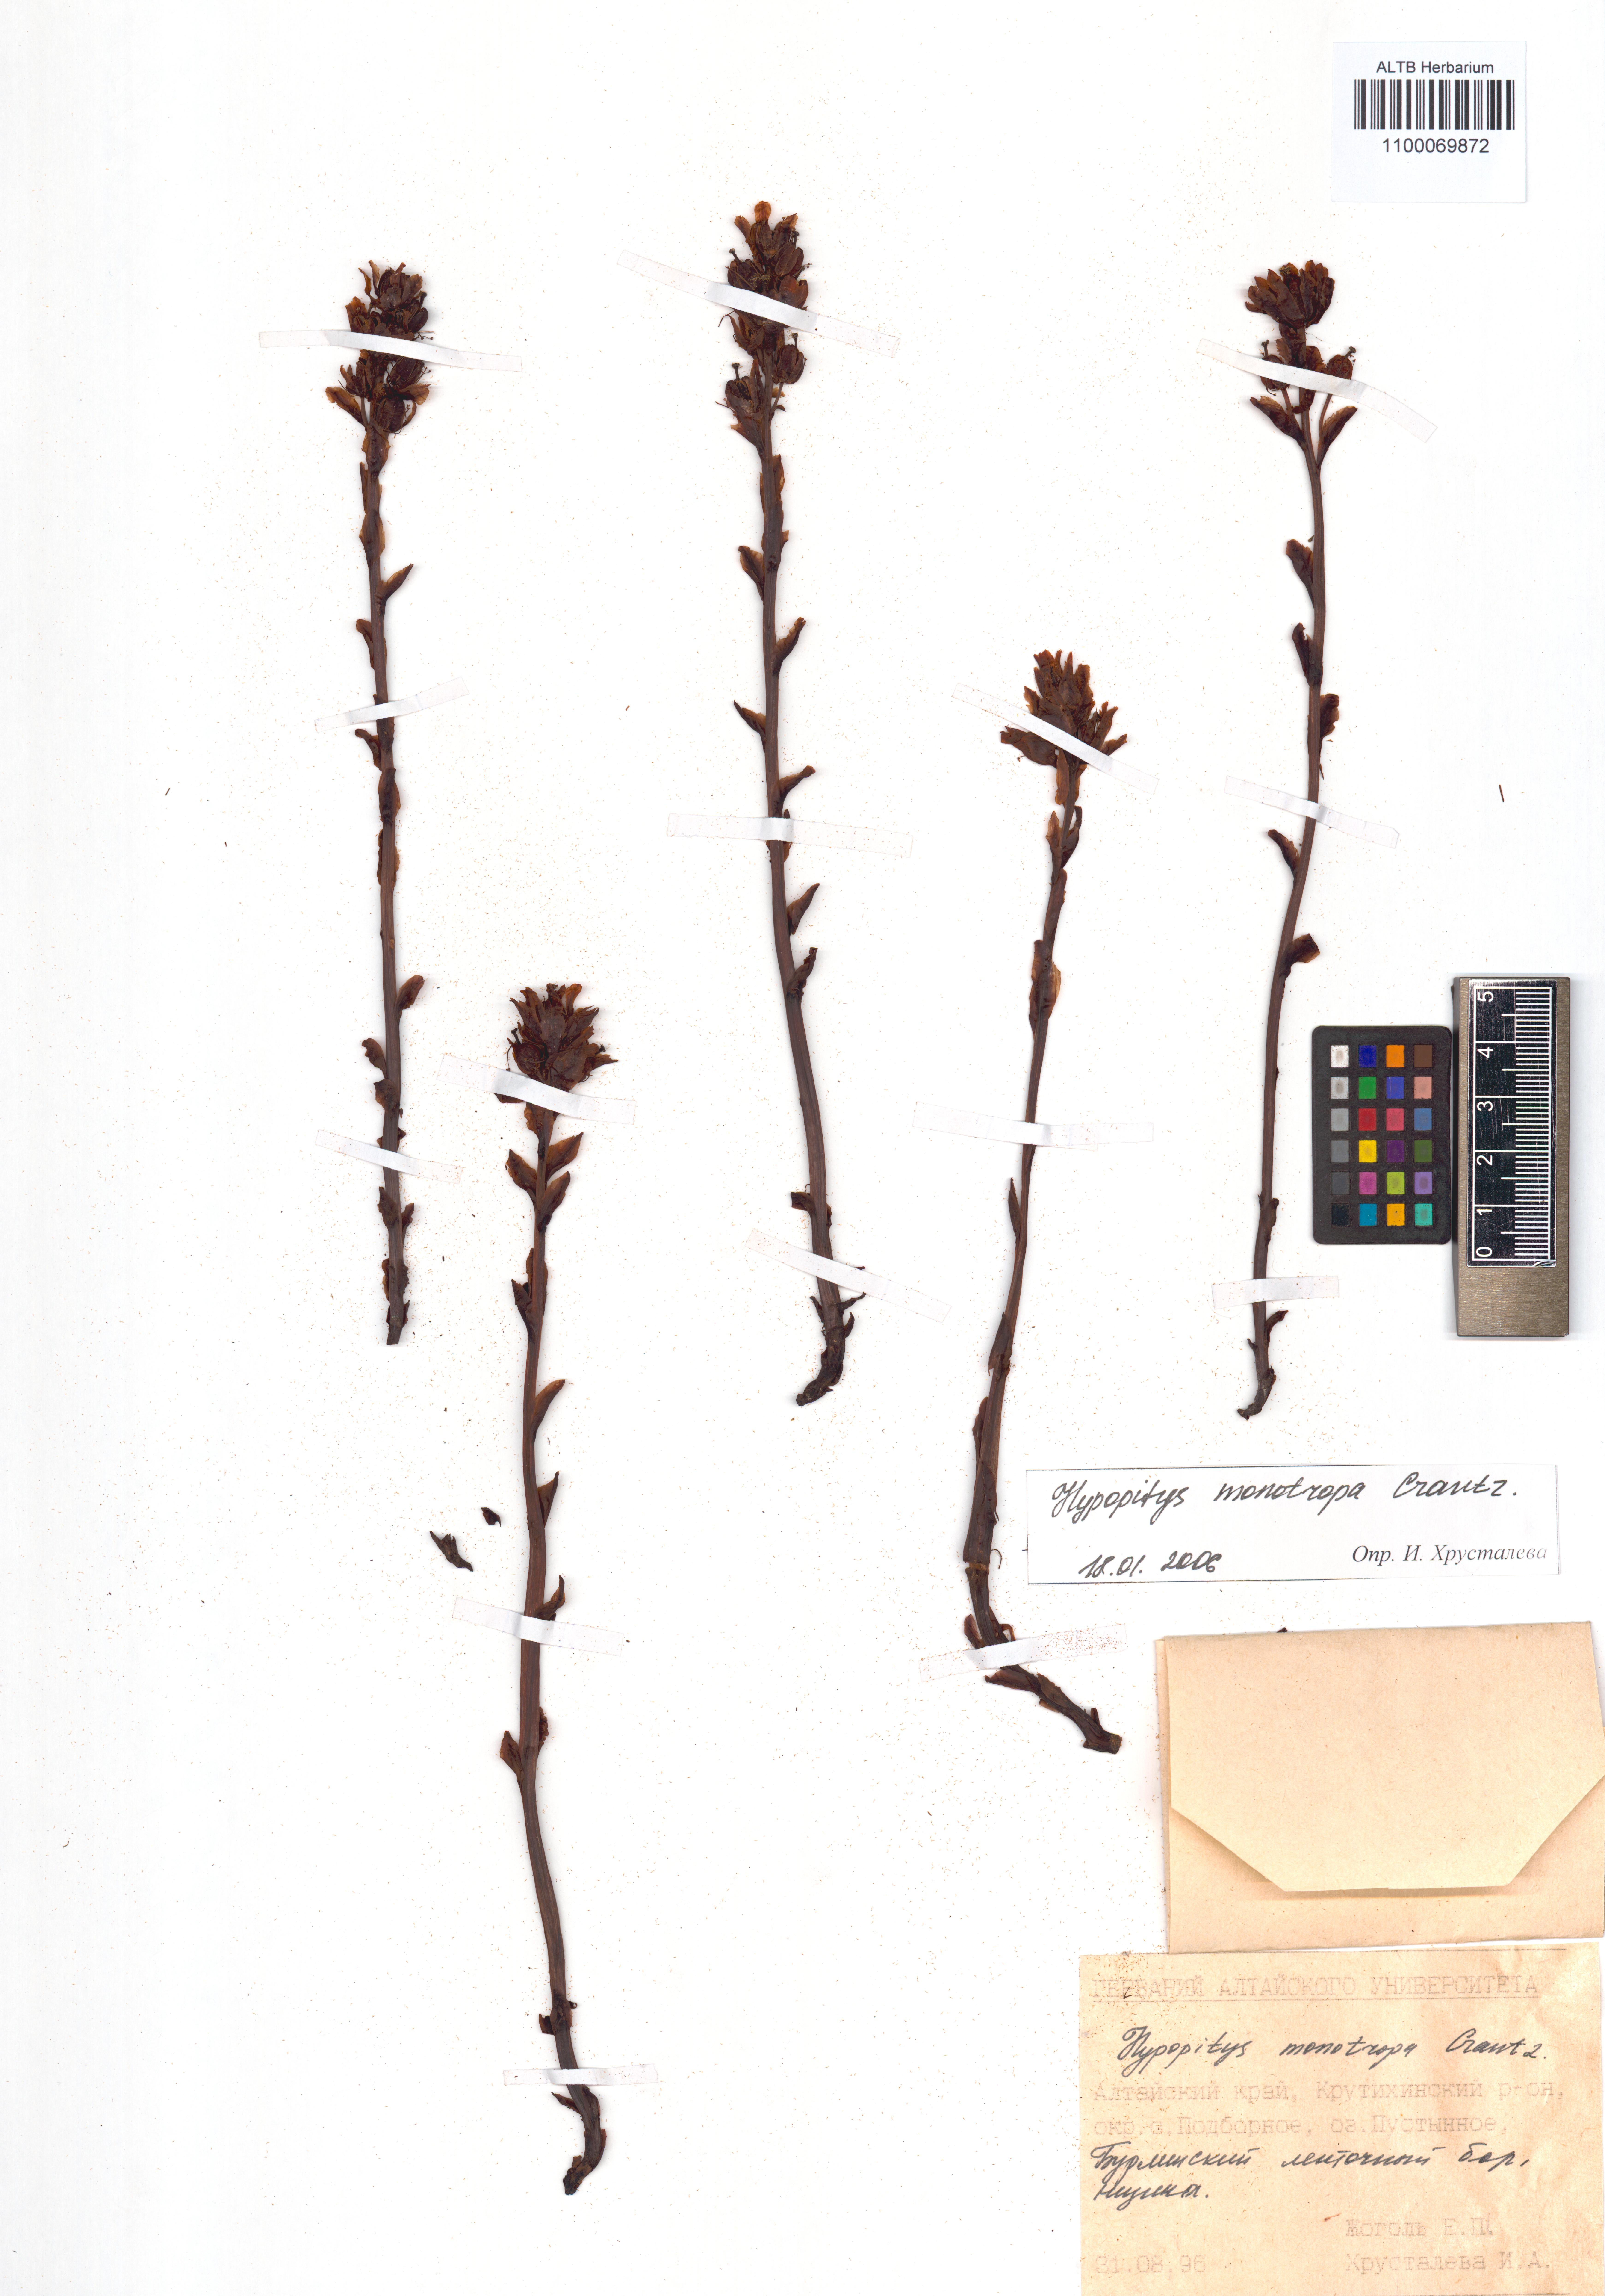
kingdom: Plantae
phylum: Tracheophyta
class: Magnoliopsida
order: Ericales
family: Ericaceae
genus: Hypopitys
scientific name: Hypopitys monotropa
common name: Yellow bird's-nest
